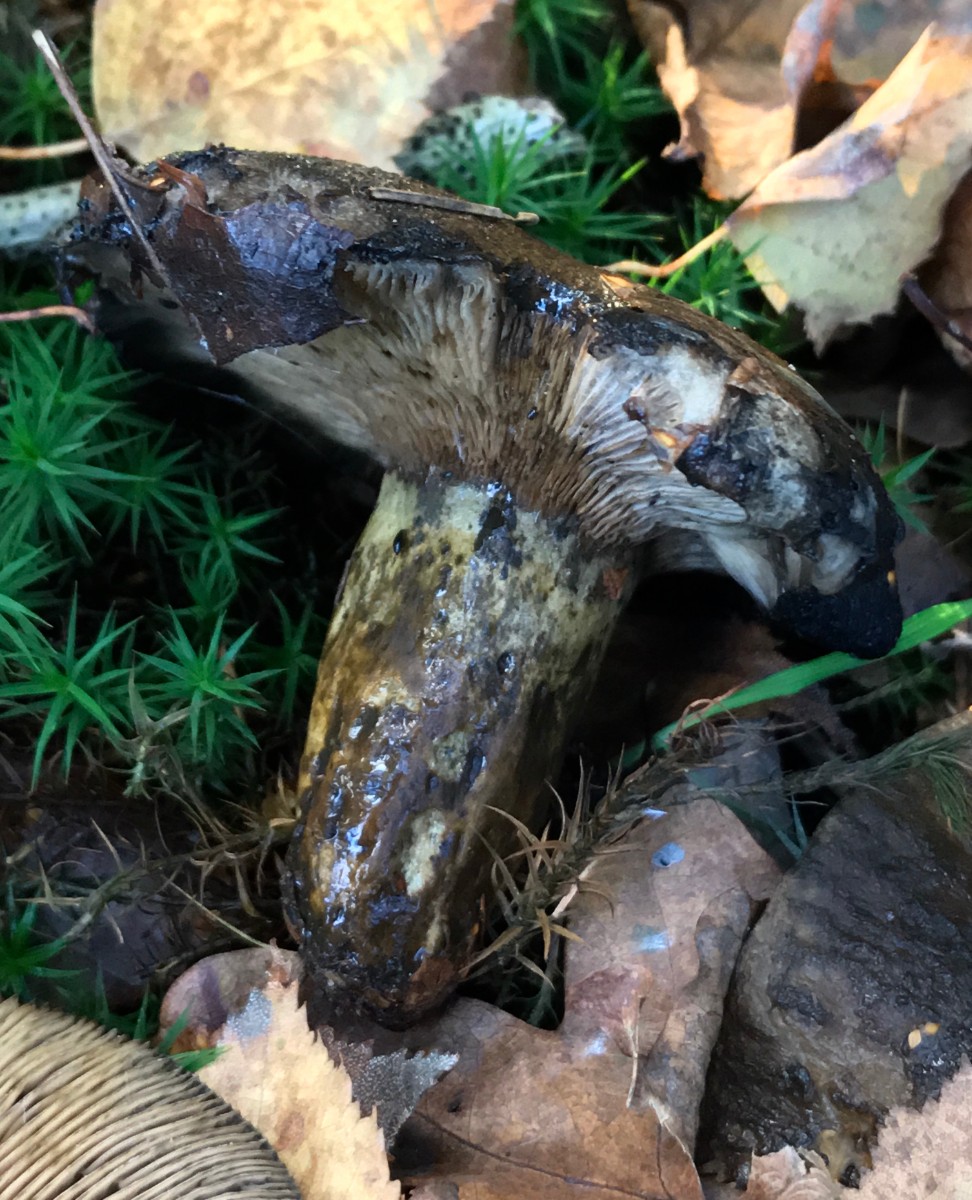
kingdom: Fungi
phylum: Basidiomycota
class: Agaricomycetes
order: Russulales
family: Russulaceae
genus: Lactarius
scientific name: Lactarius necator
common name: manddraber-mælkehat
